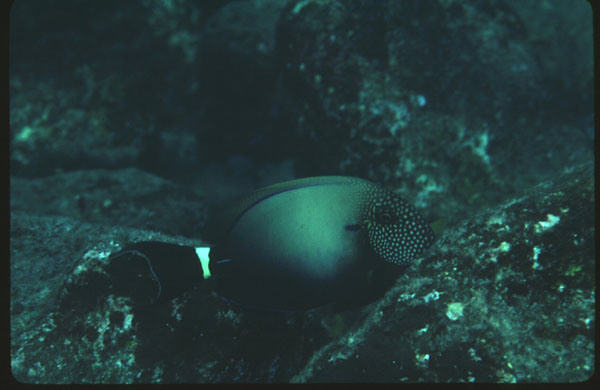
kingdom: Animalia
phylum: Chordata
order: Perciformes
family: Acanthuridae
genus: Acanthurus
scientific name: Acanthurus maculiceps
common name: Earbar surgeonfish
